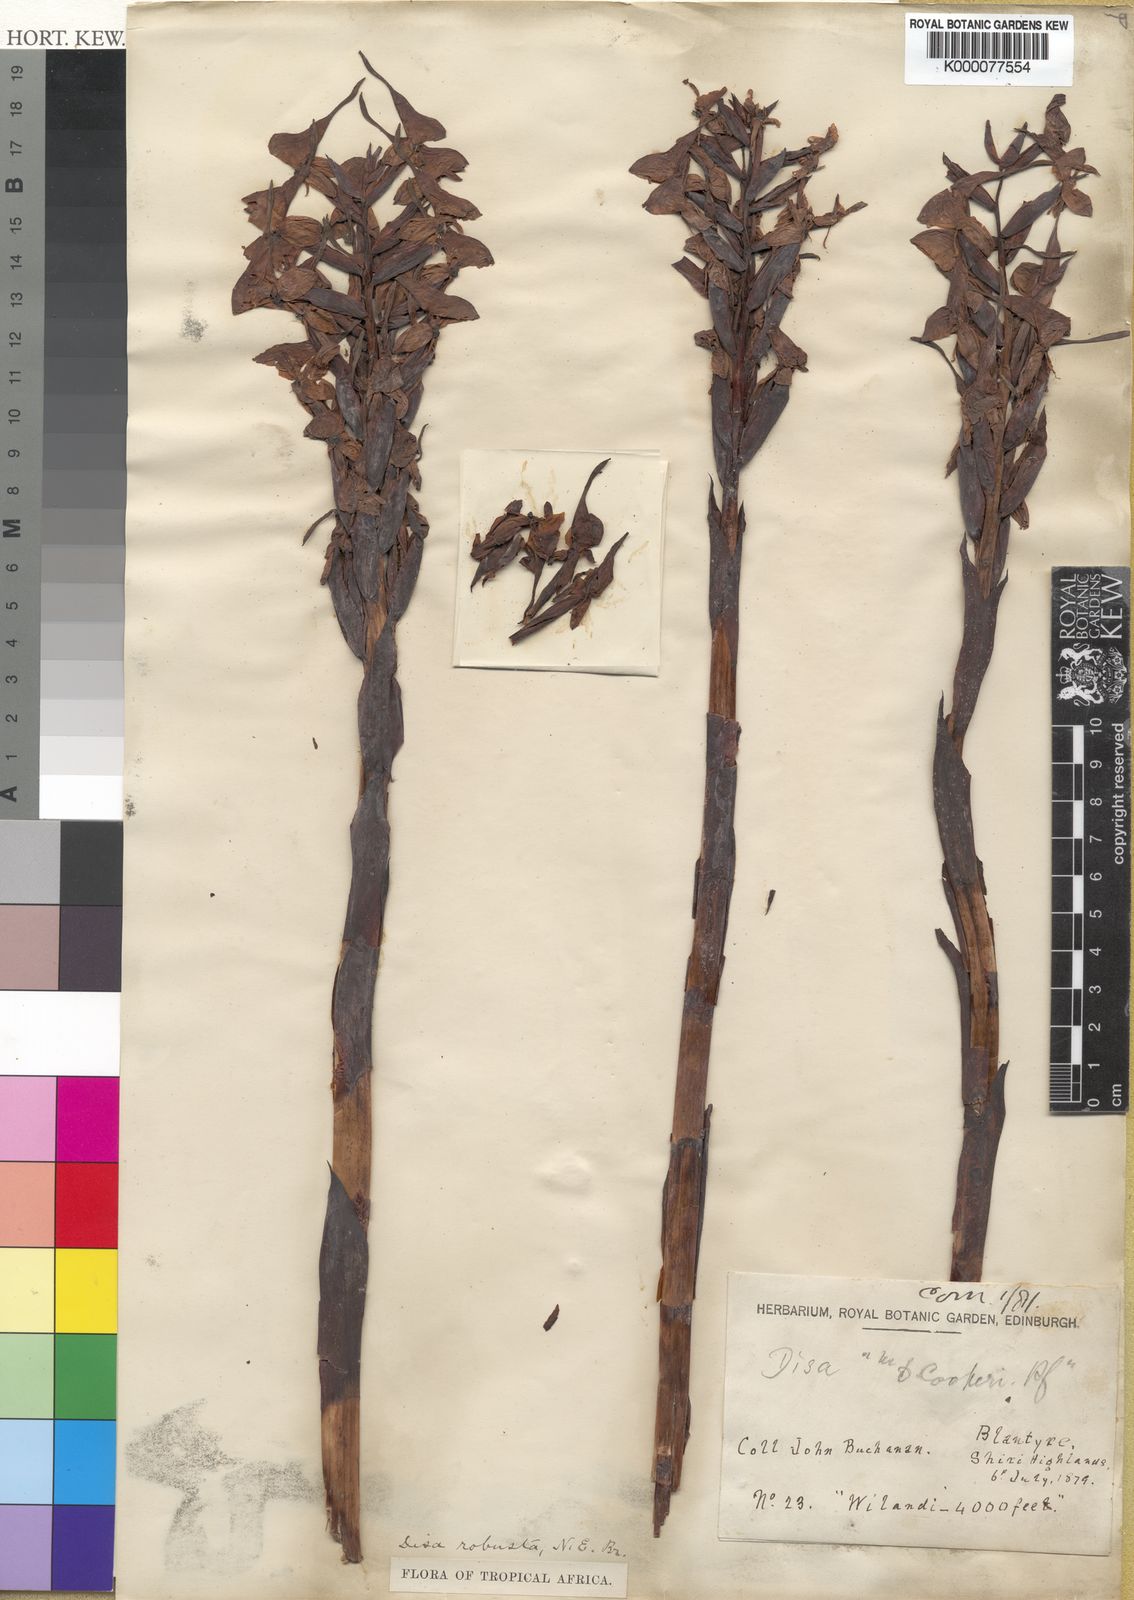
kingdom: Plantae
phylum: Tracheophyta
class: Liliopsida
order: Asparagales
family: Orchidaceae
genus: Disa
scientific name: Disa robusta
